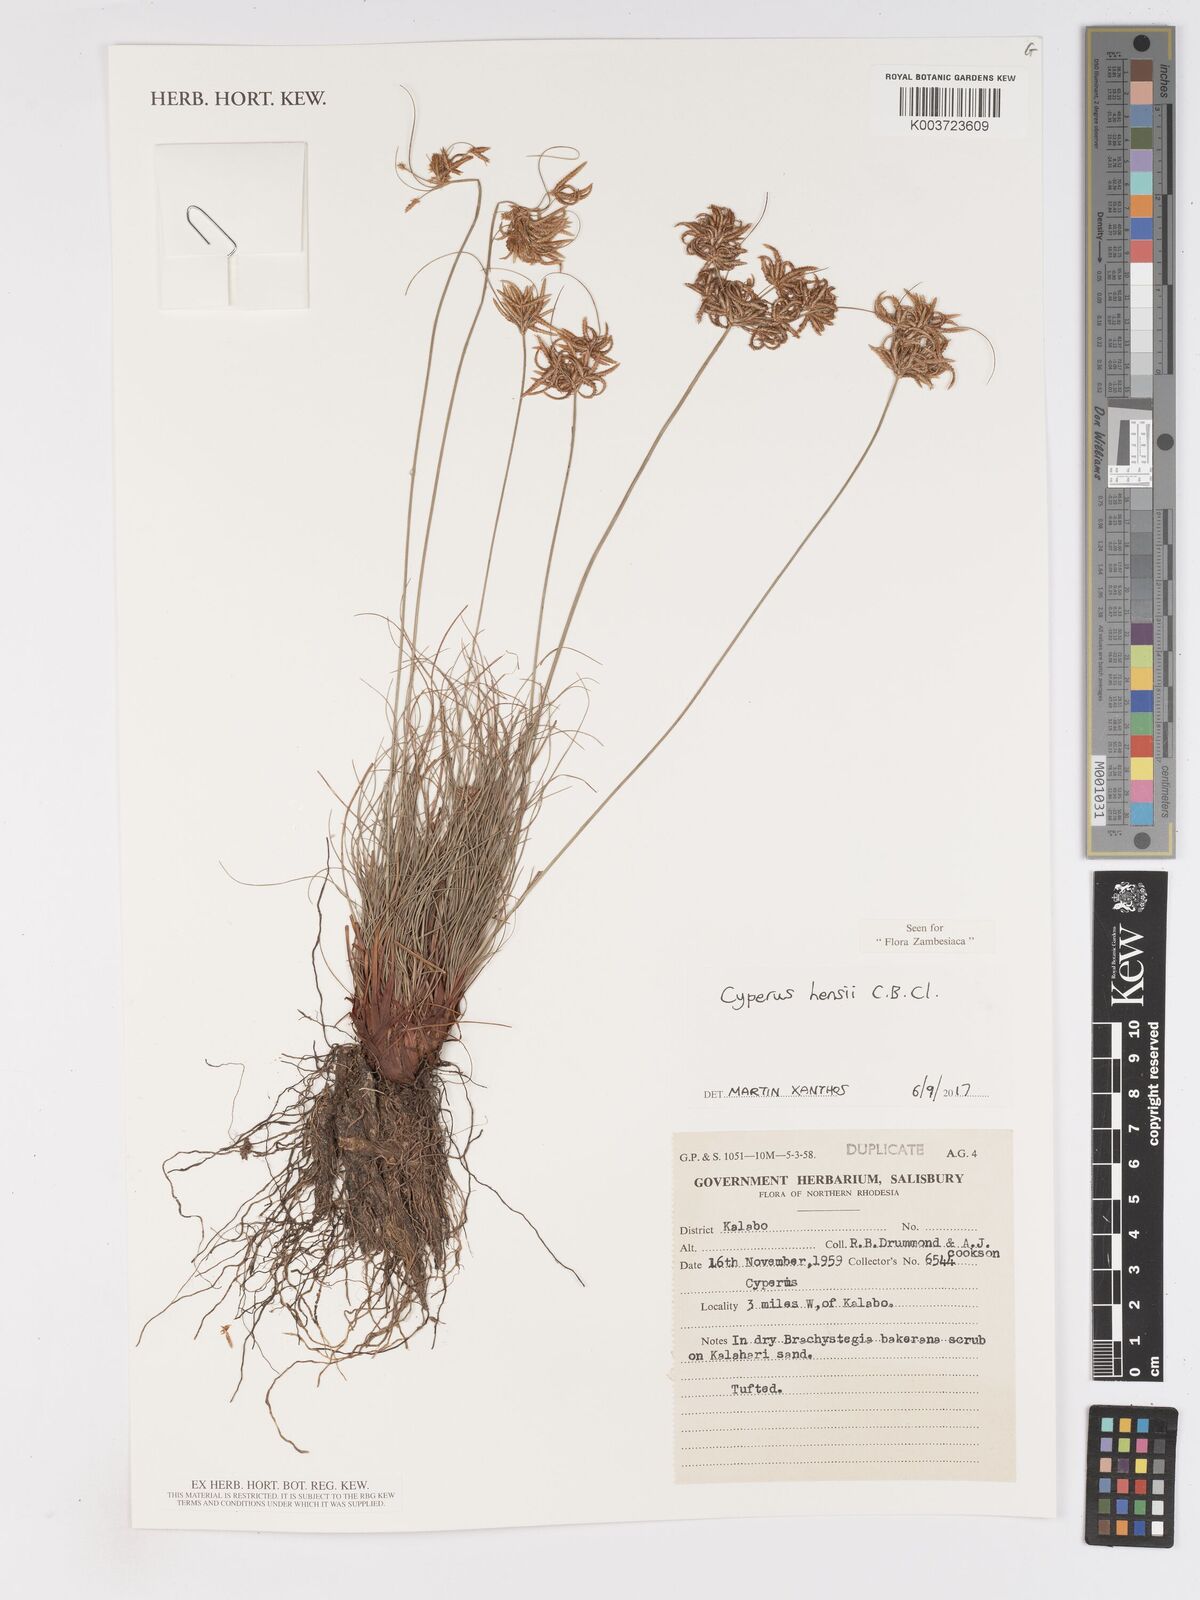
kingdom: Plantae
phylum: Tracheophyta
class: Liliopsida
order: Poales
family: Cyperaceae
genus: Cyperus
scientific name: Cyperus hensii
